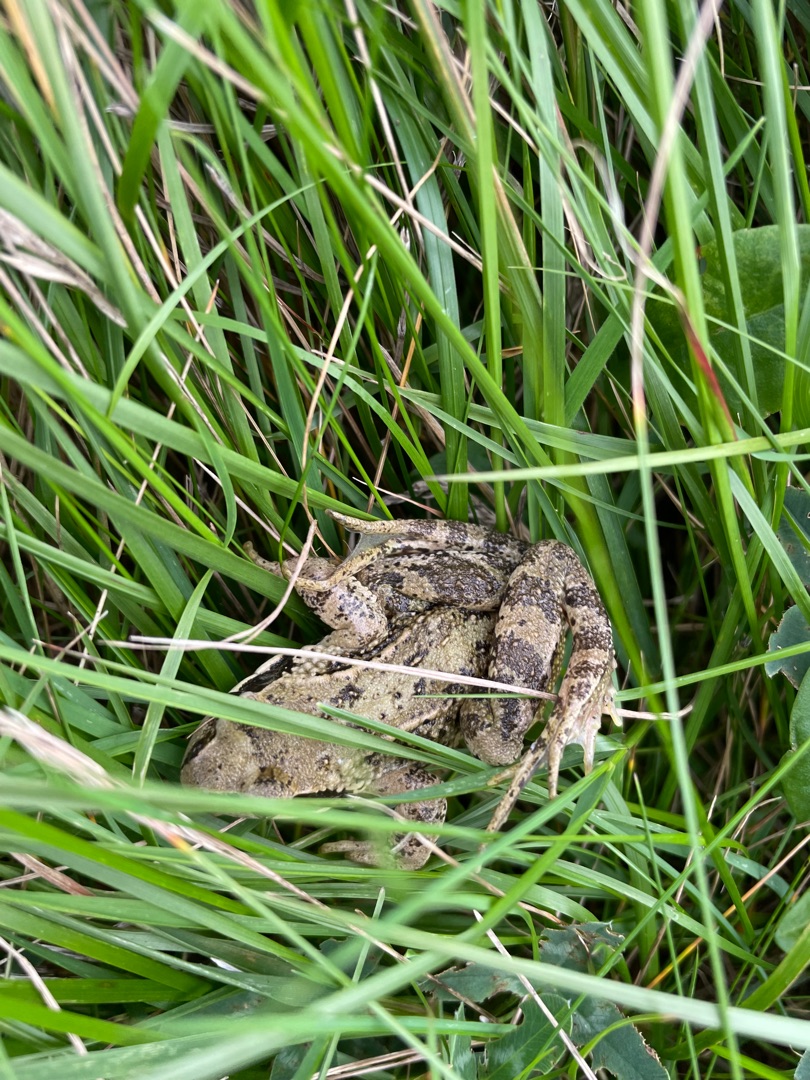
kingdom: Animalia
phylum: Chordata
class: Amphibia
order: Anura
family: Ranidae
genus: Rana
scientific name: Rana temporaria
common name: Butsnudet frø
